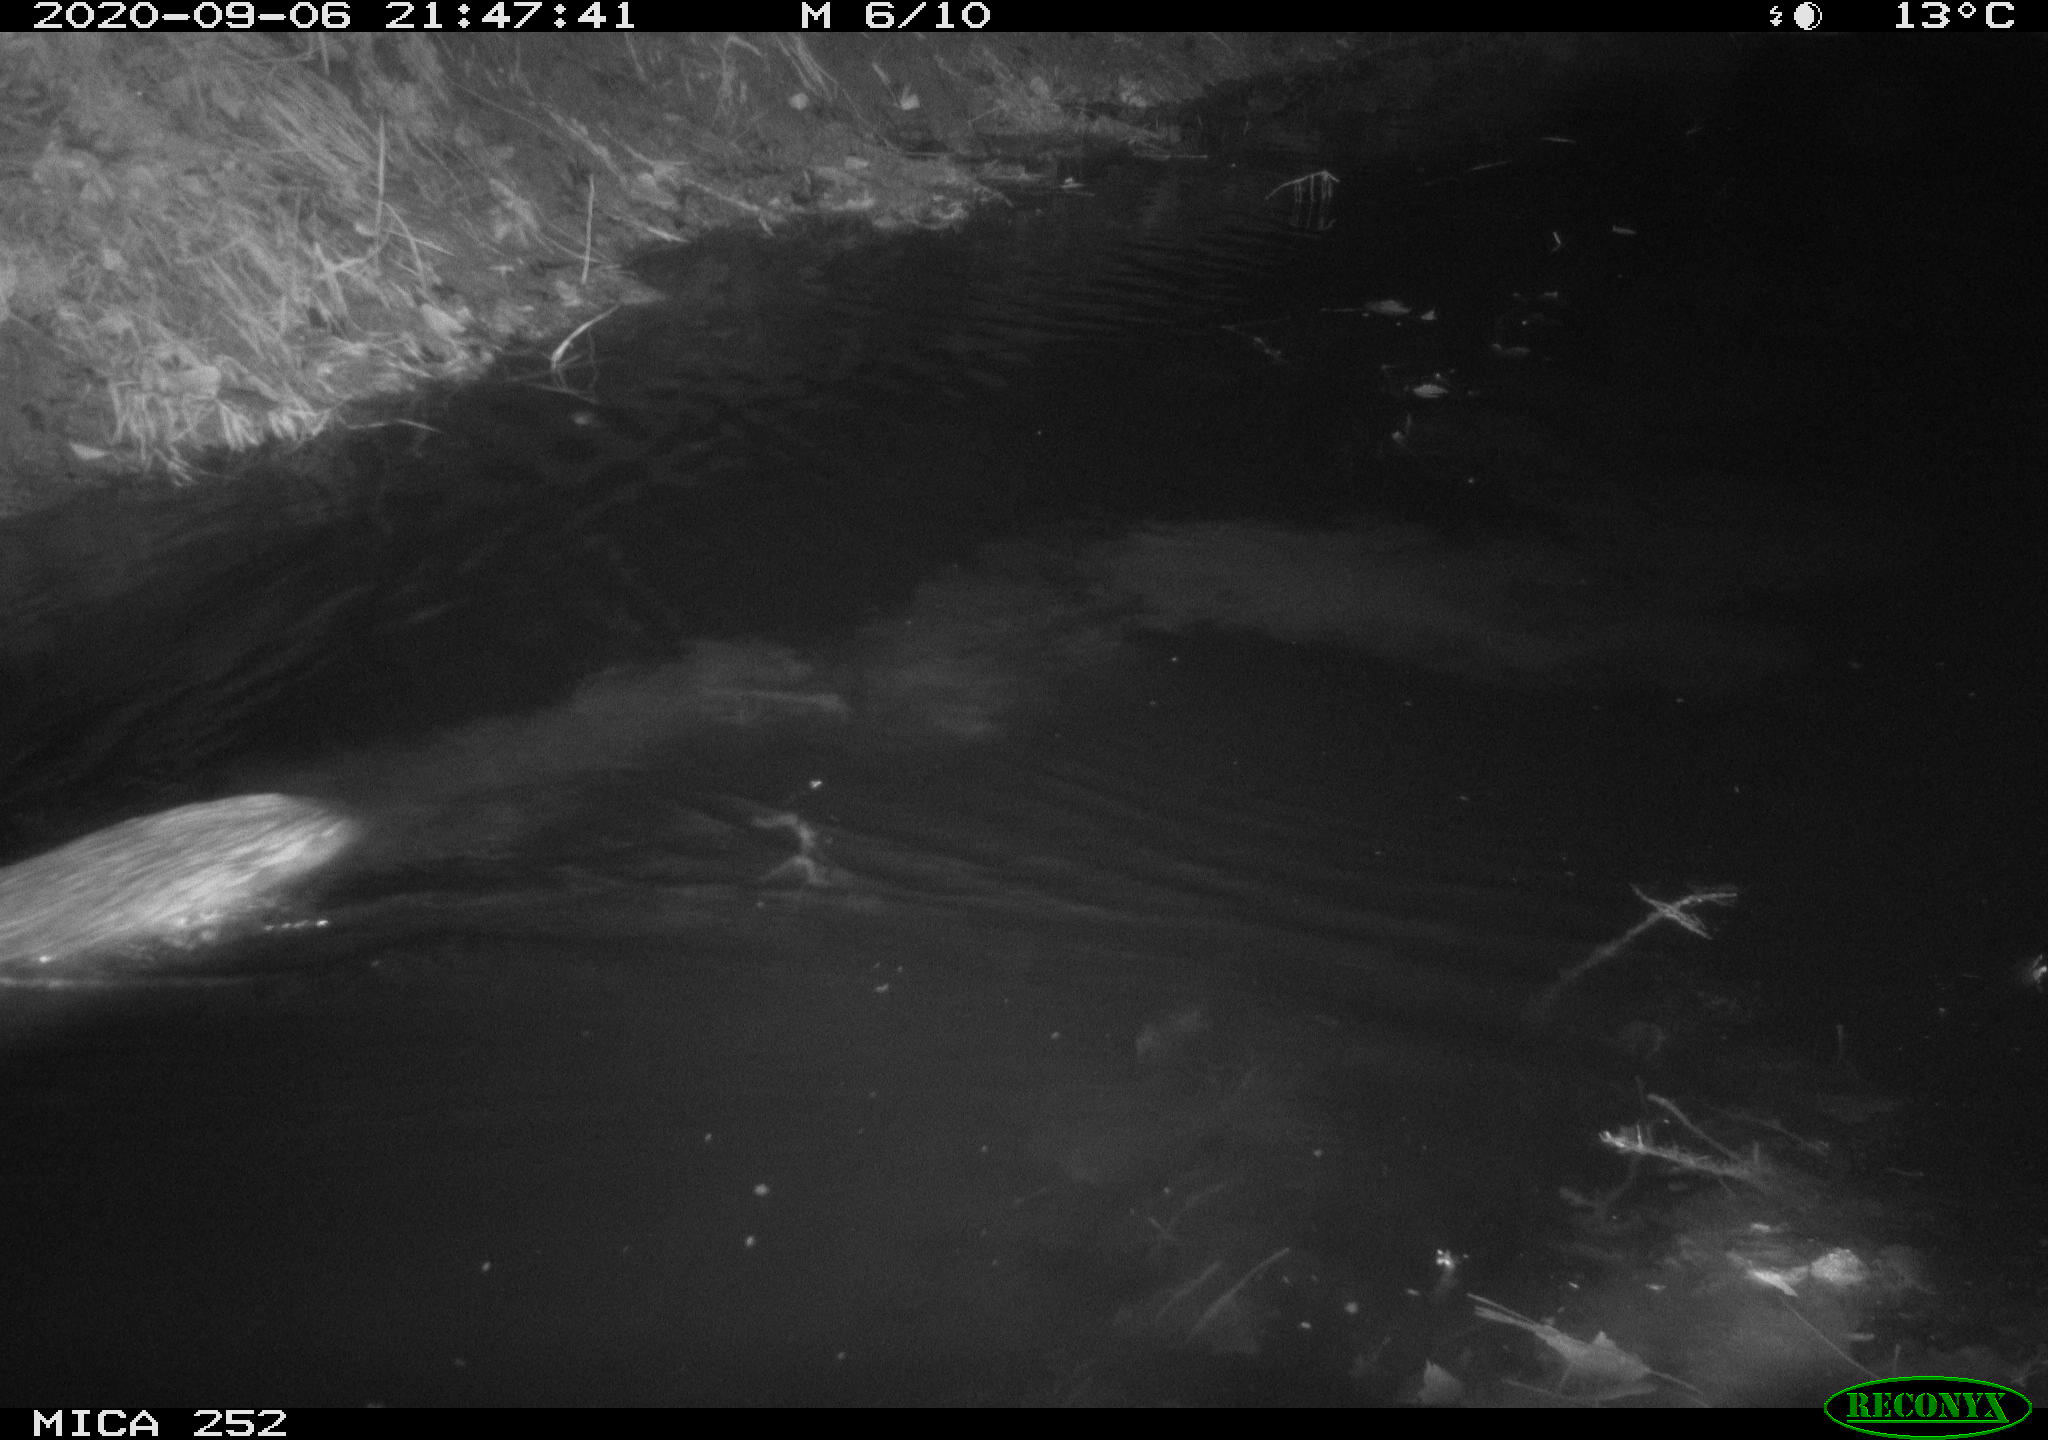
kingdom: Animalia
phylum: Chordata
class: Mammalia
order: Rodentia
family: Castoridae
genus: Castor
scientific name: Castor fiber
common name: Eurasian beaver
